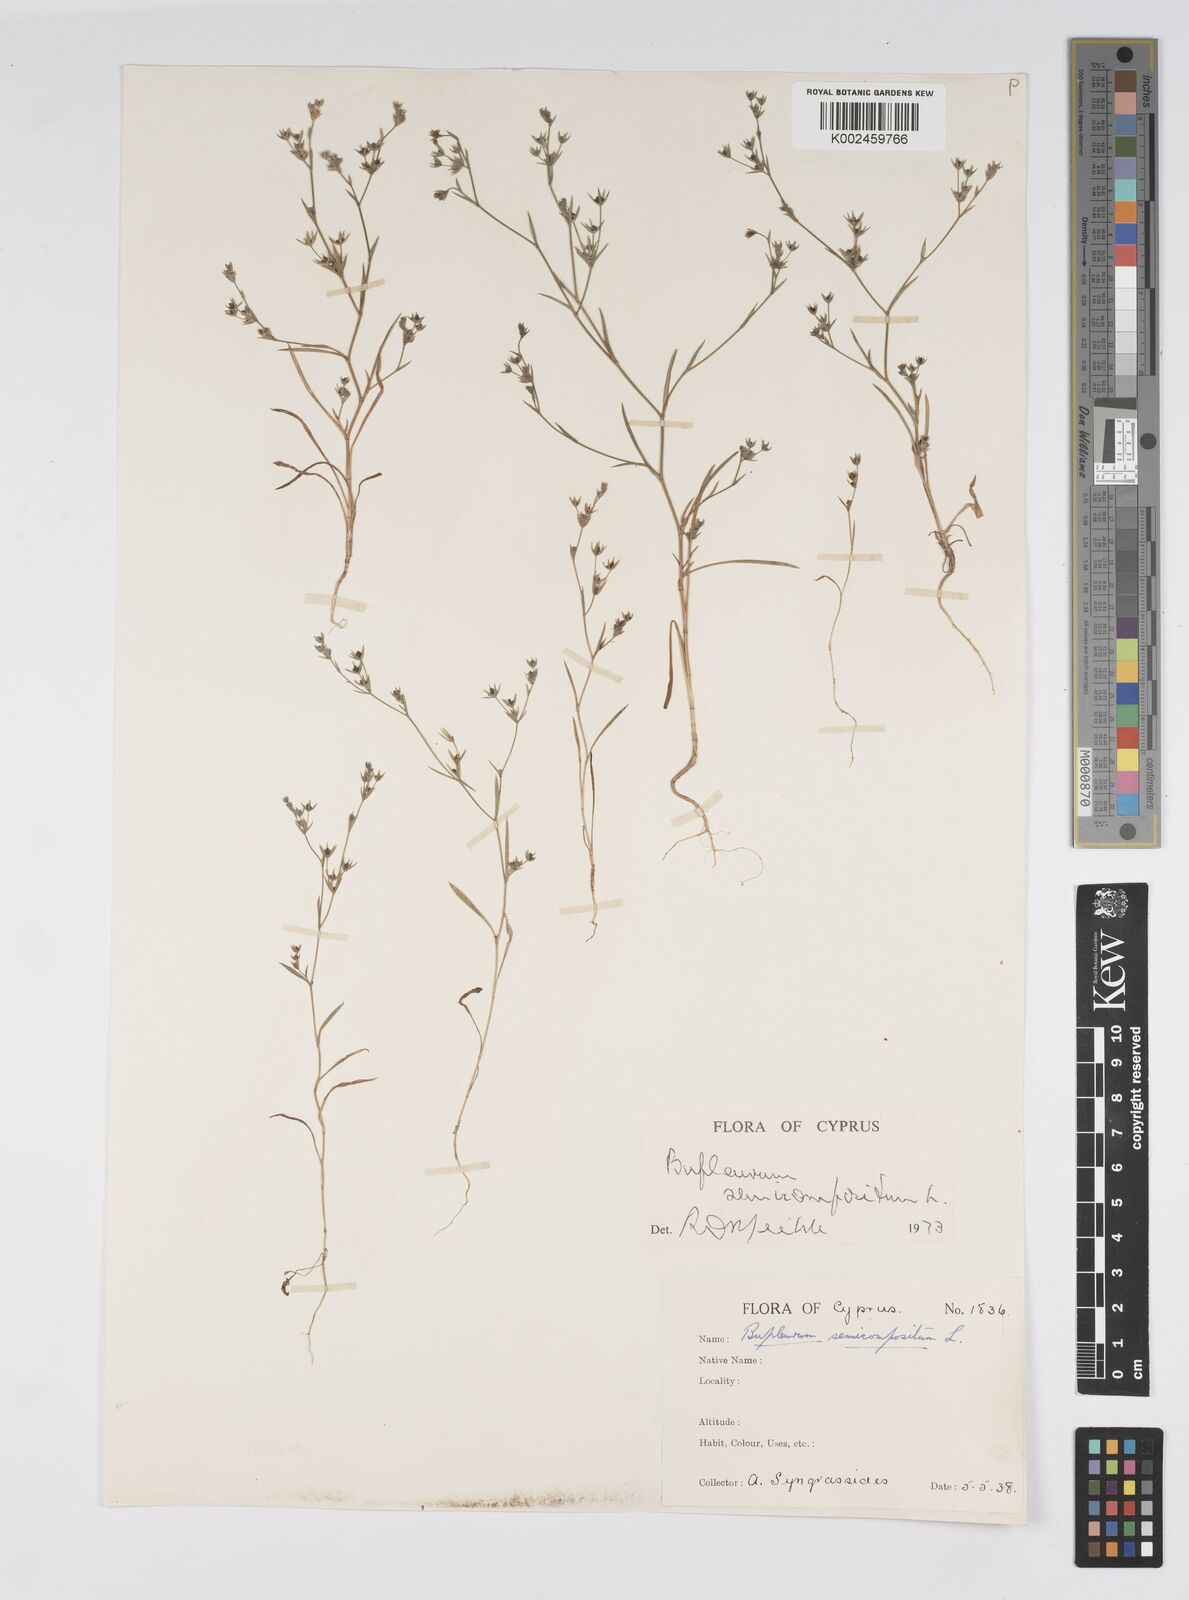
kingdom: Plantae
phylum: Tracheophyta
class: Magnoliopsida
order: Apiales
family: Apiaceae
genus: Bupleurum
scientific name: Bupleurum semicompositum
